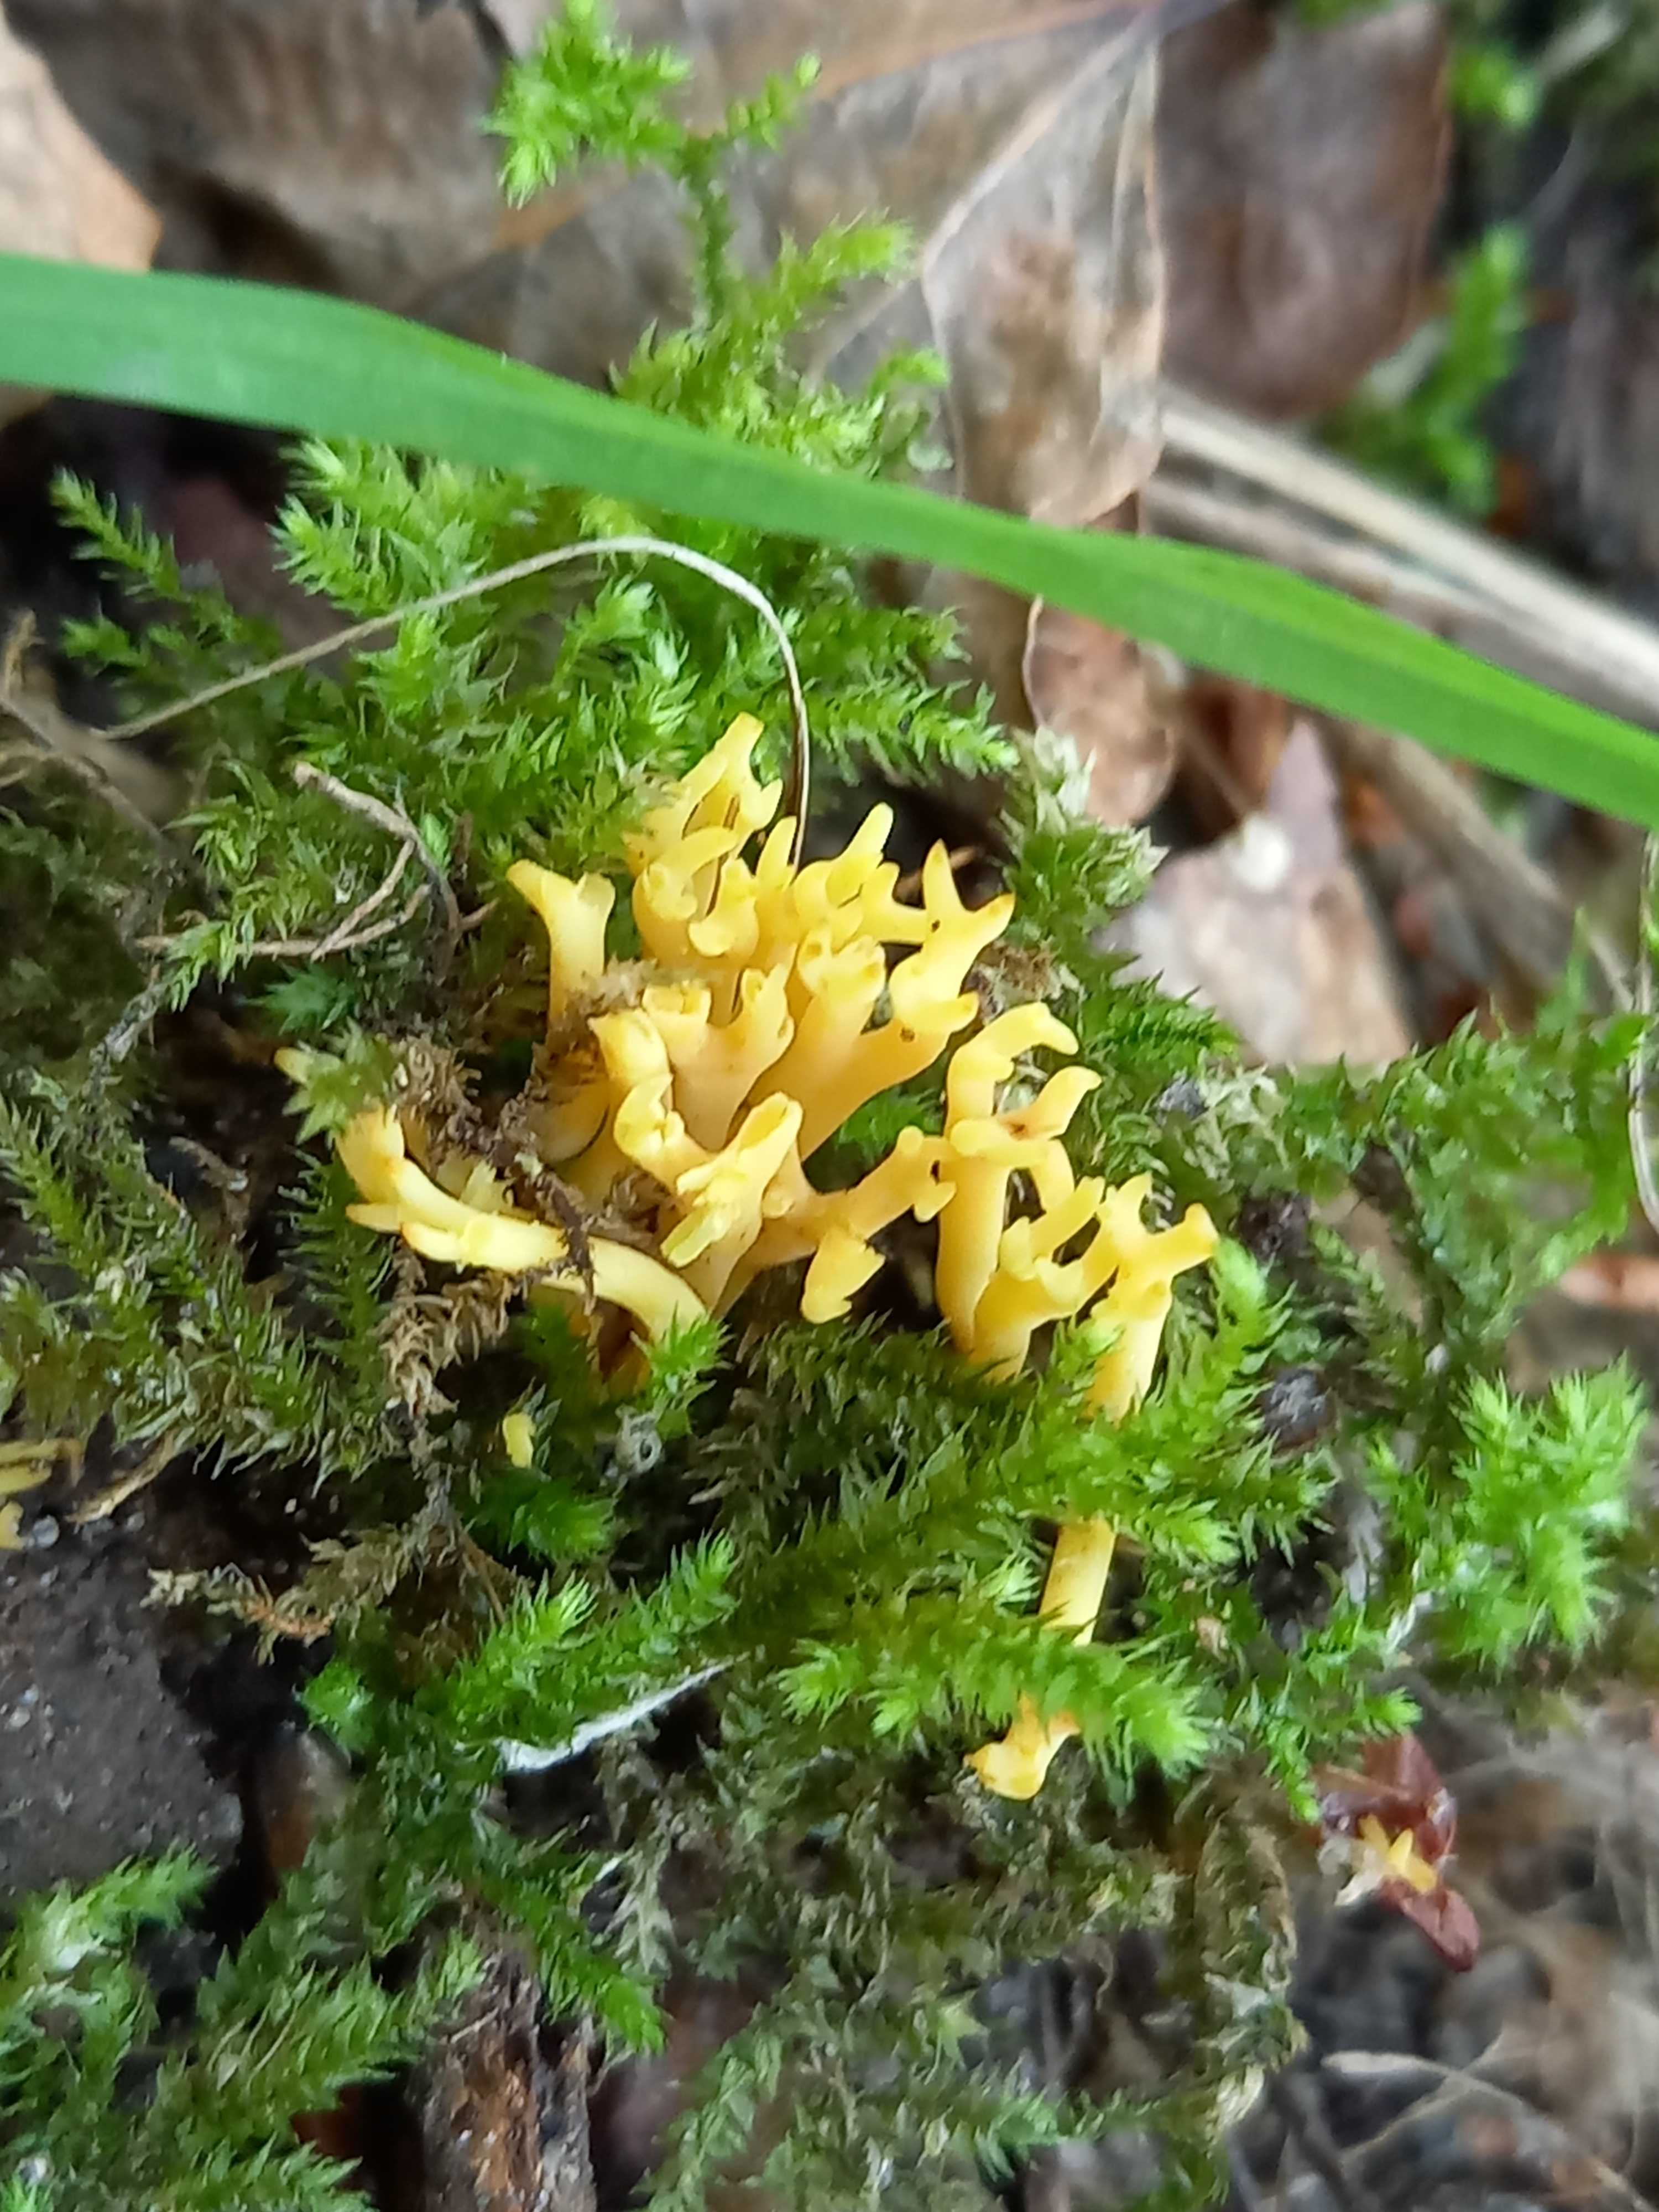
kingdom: Fungi
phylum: Basidiomycota
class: Agaricomycetes
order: Agaricales
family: Clavariaceae
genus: Clavulinopsis
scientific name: Clavulinopsis corniculata
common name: eng-køllesvamp
